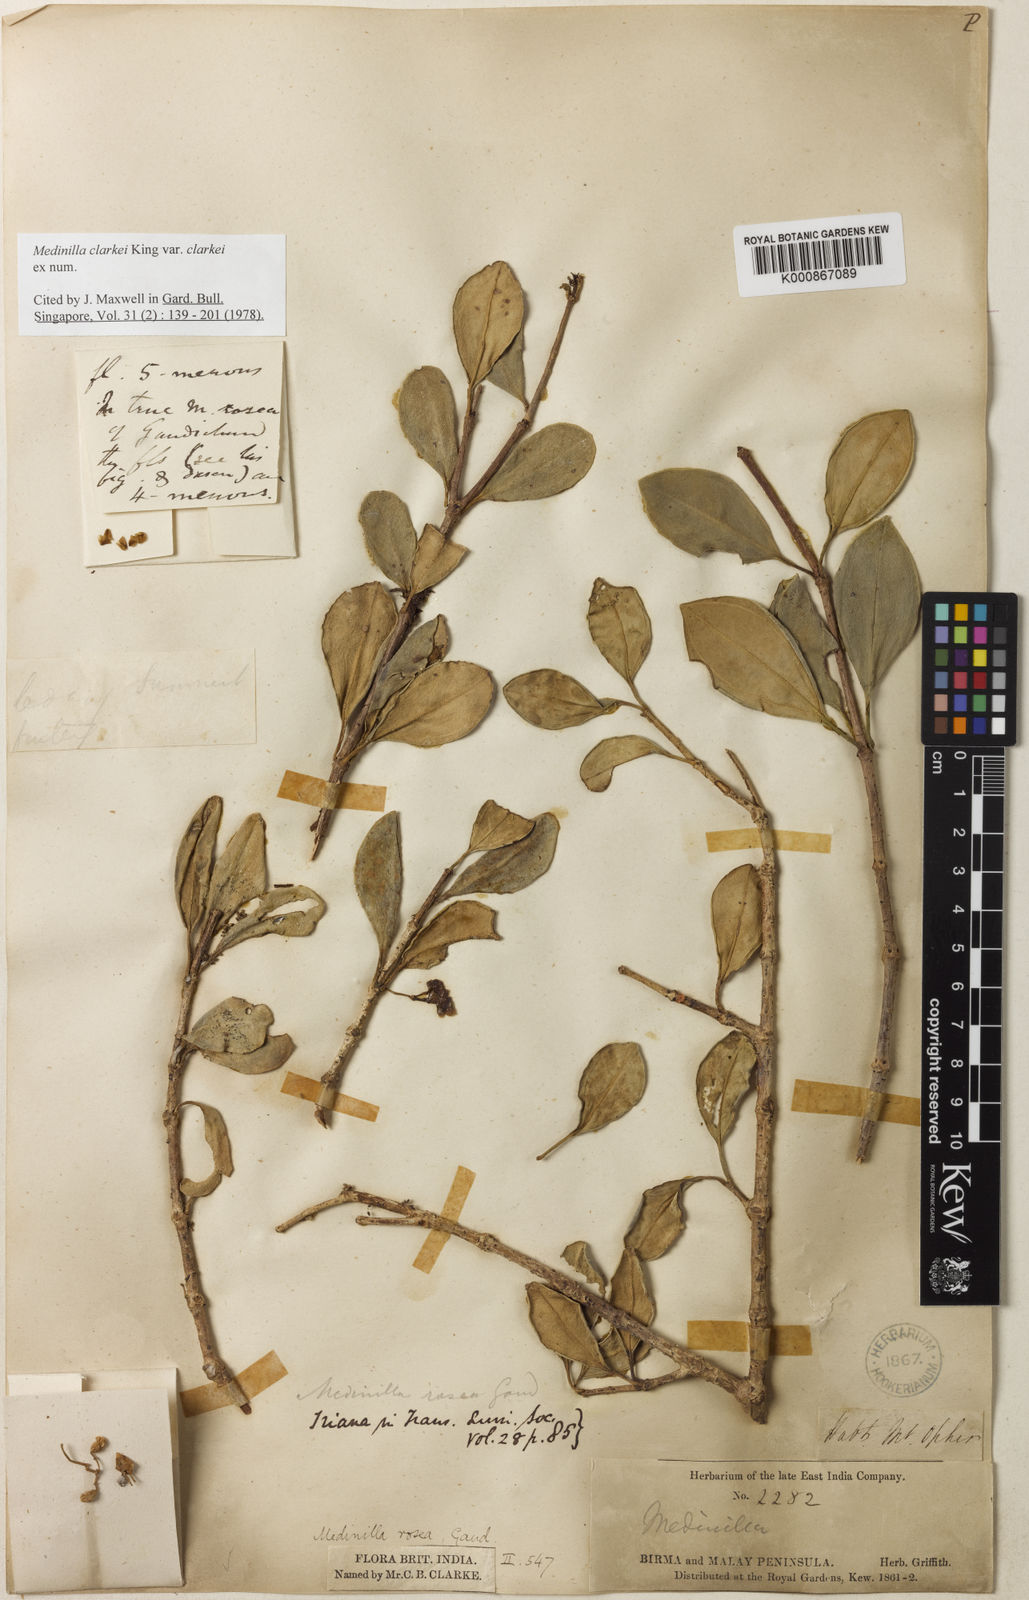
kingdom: Plantae
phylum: Tracheophyta
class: Magnoliopsida
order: Myrtales
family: Melastomataceae
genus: Medinilla
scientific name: Medinilla clarkei
